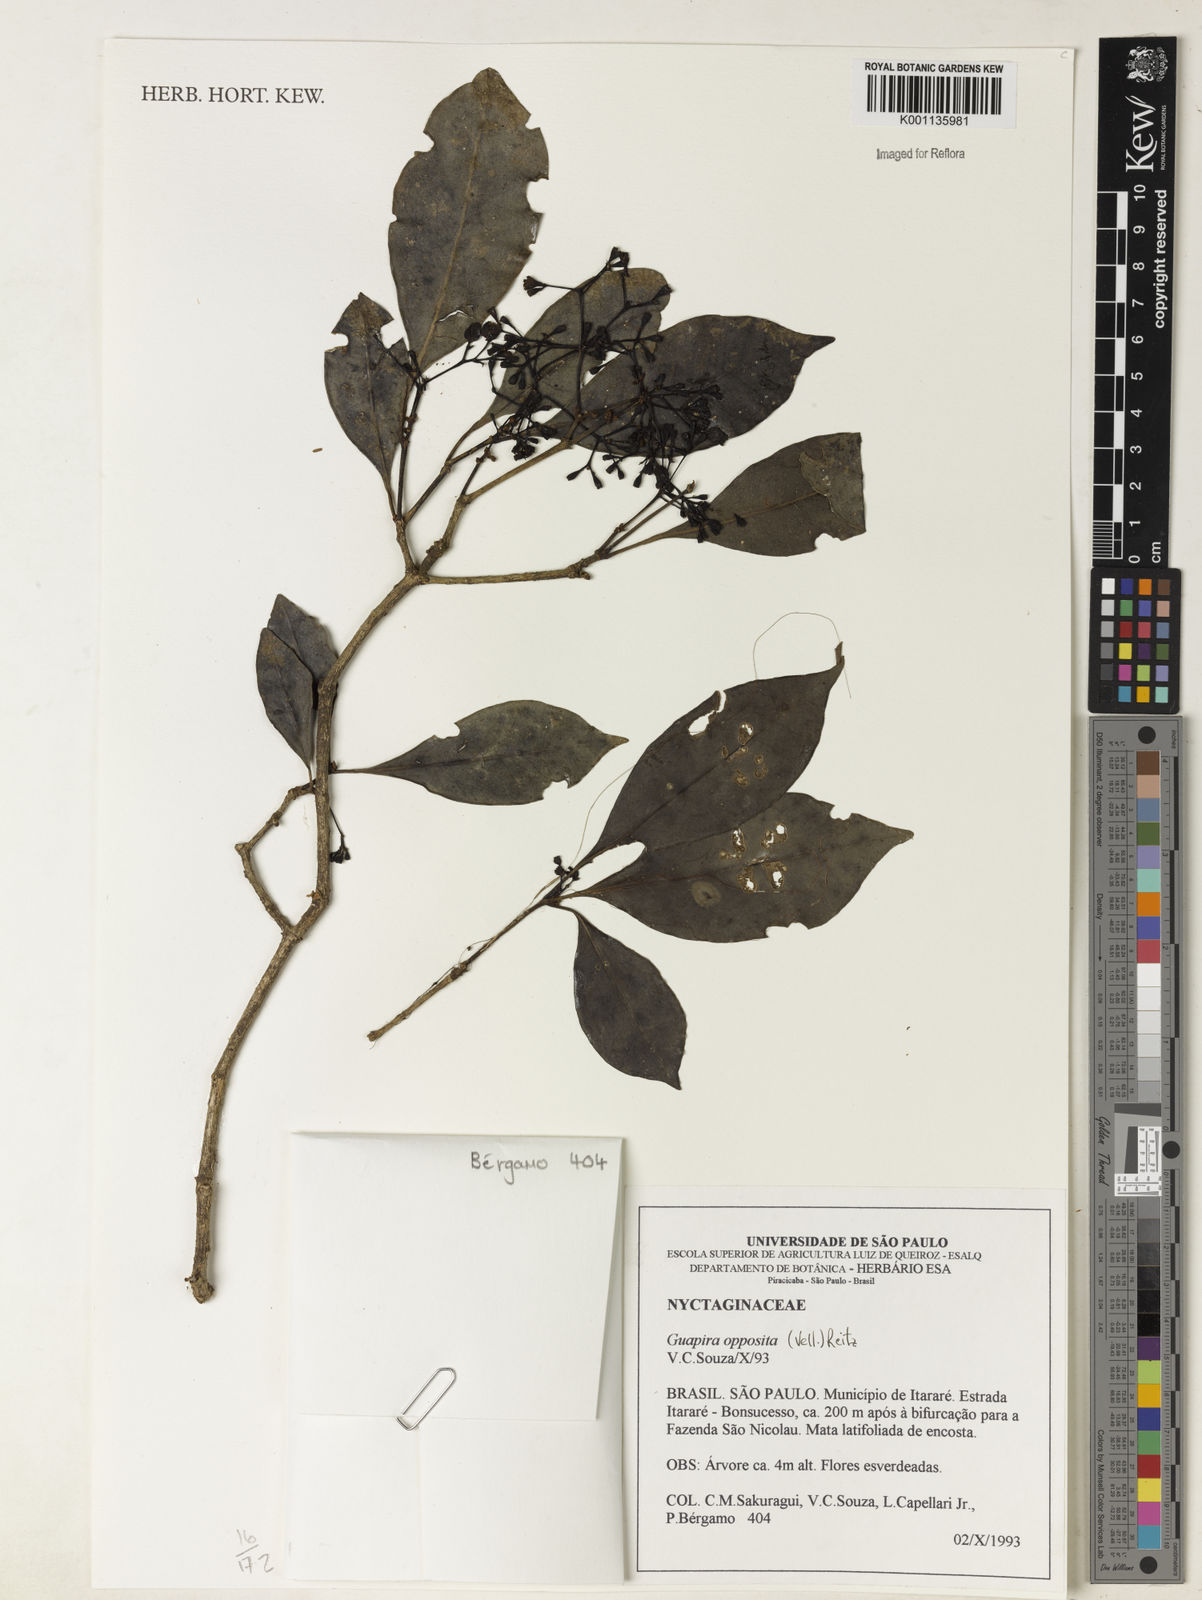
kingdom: Plantae
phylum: Tracheophyta
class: Magnoliopsida
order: Caryophyllales
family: Nyctaginaceae
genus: Guapira
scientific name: Guapira opposita
